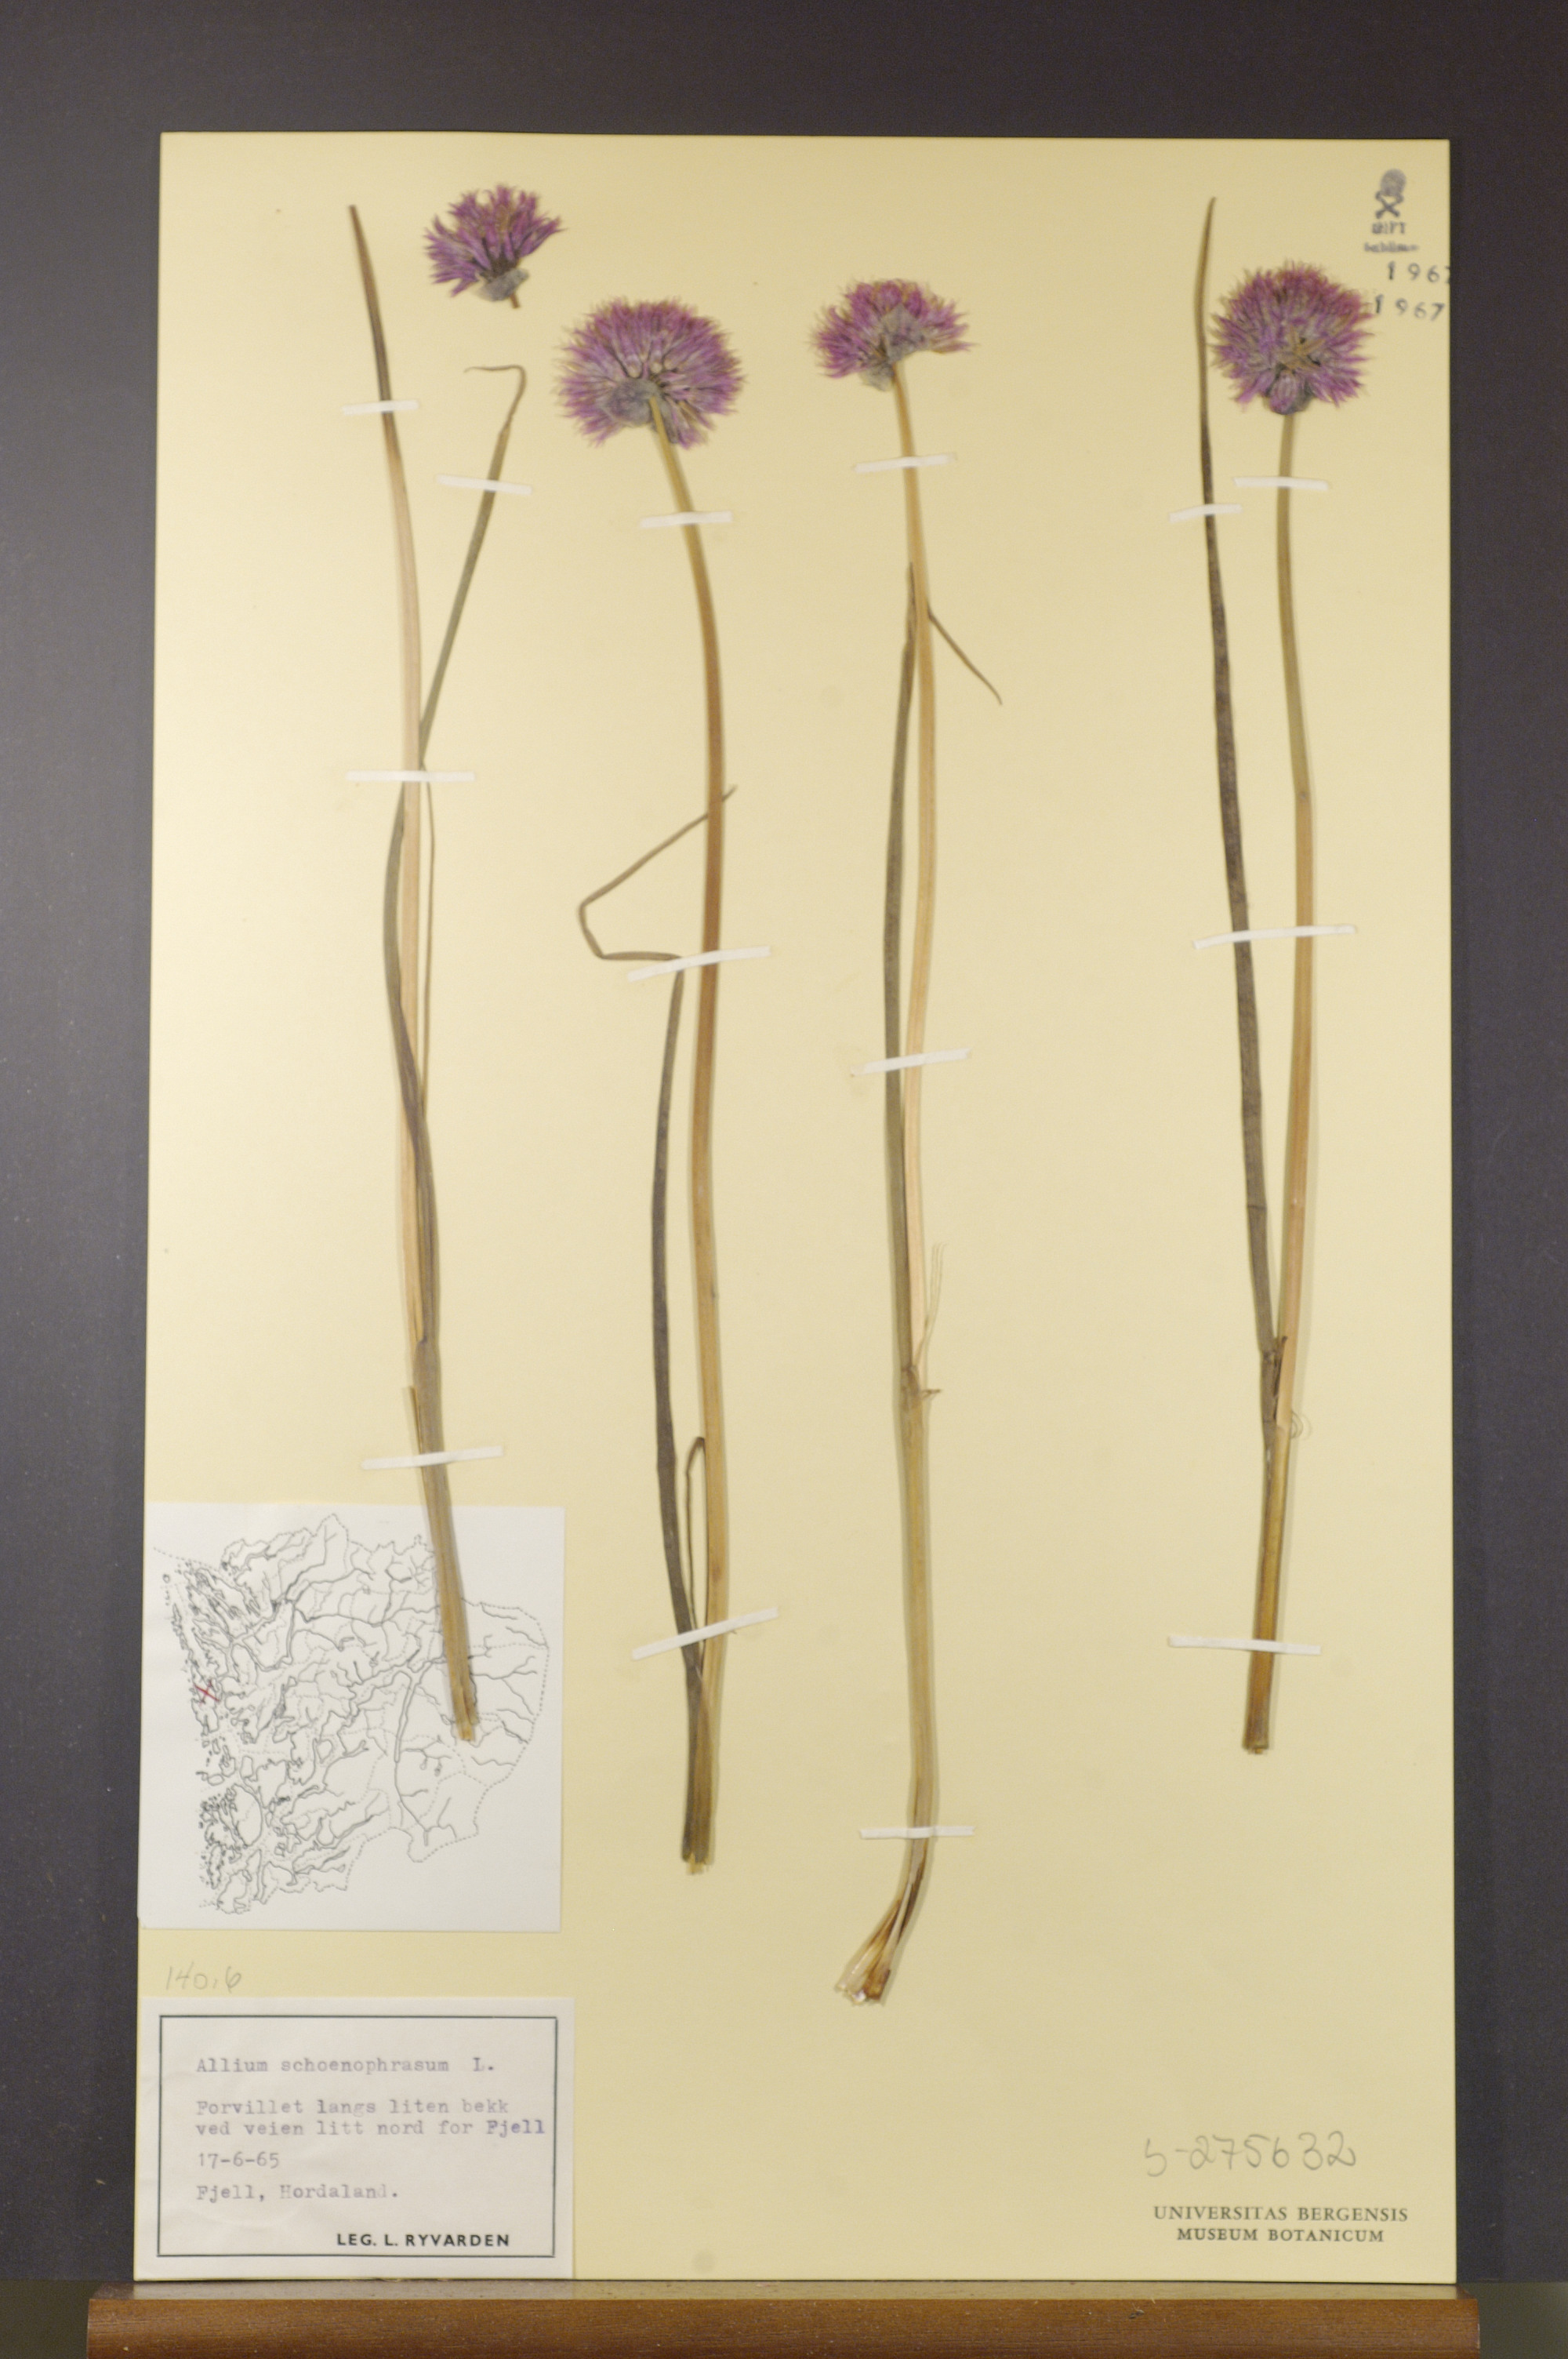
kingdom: Plantae
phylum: Tracheophyta
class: Liliopsida
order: Asparagales
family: Amaryllidaceae
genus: Allium
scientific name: Allium schoenoprasum
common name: Chives
